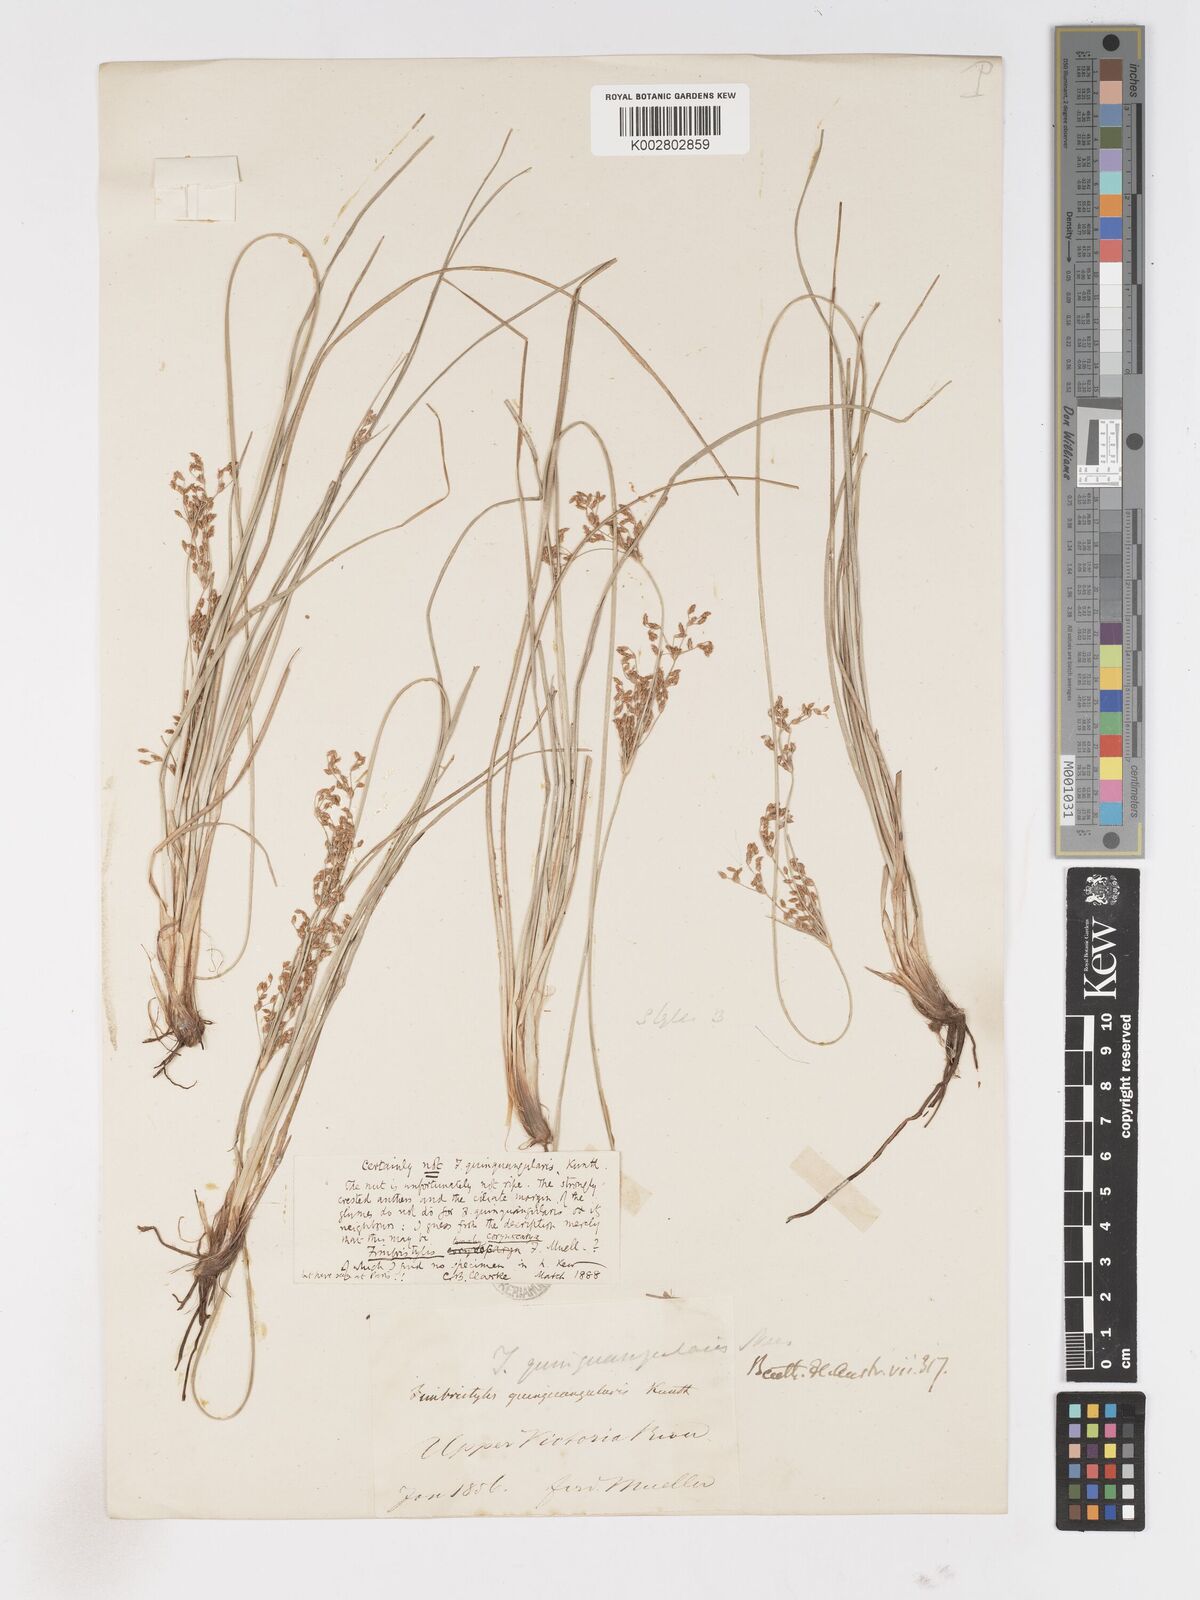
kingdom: Plantae
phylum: Tracheophyta
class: Liliopsida
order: Poales
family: Cyperaceae
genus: Fimbristylis
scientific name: Fimbristylis quinquangularis
